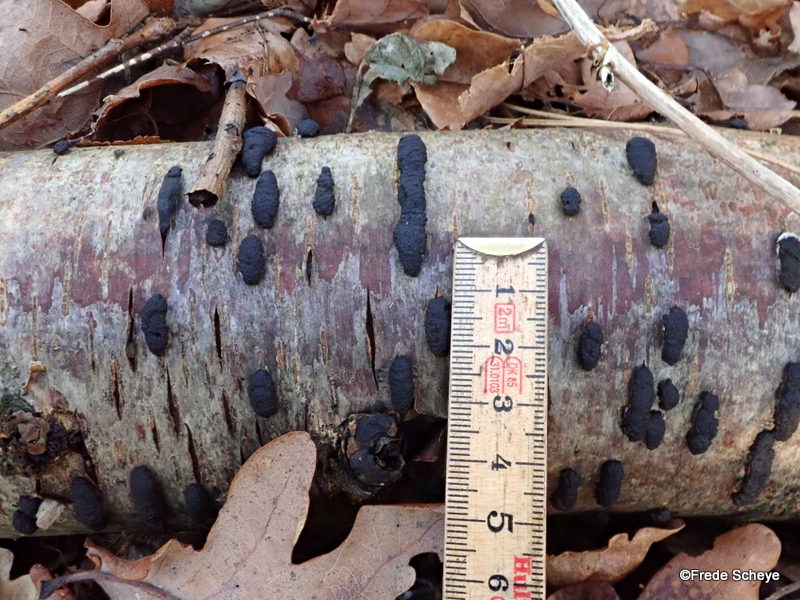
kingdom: Fungi
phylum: Ascomycota
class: Sordariomycetes
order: Xylariales
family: Hypoxylaceae
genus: Jackrogersella
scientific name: Jackrogersella multiformis
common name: foranderlig kulbær
